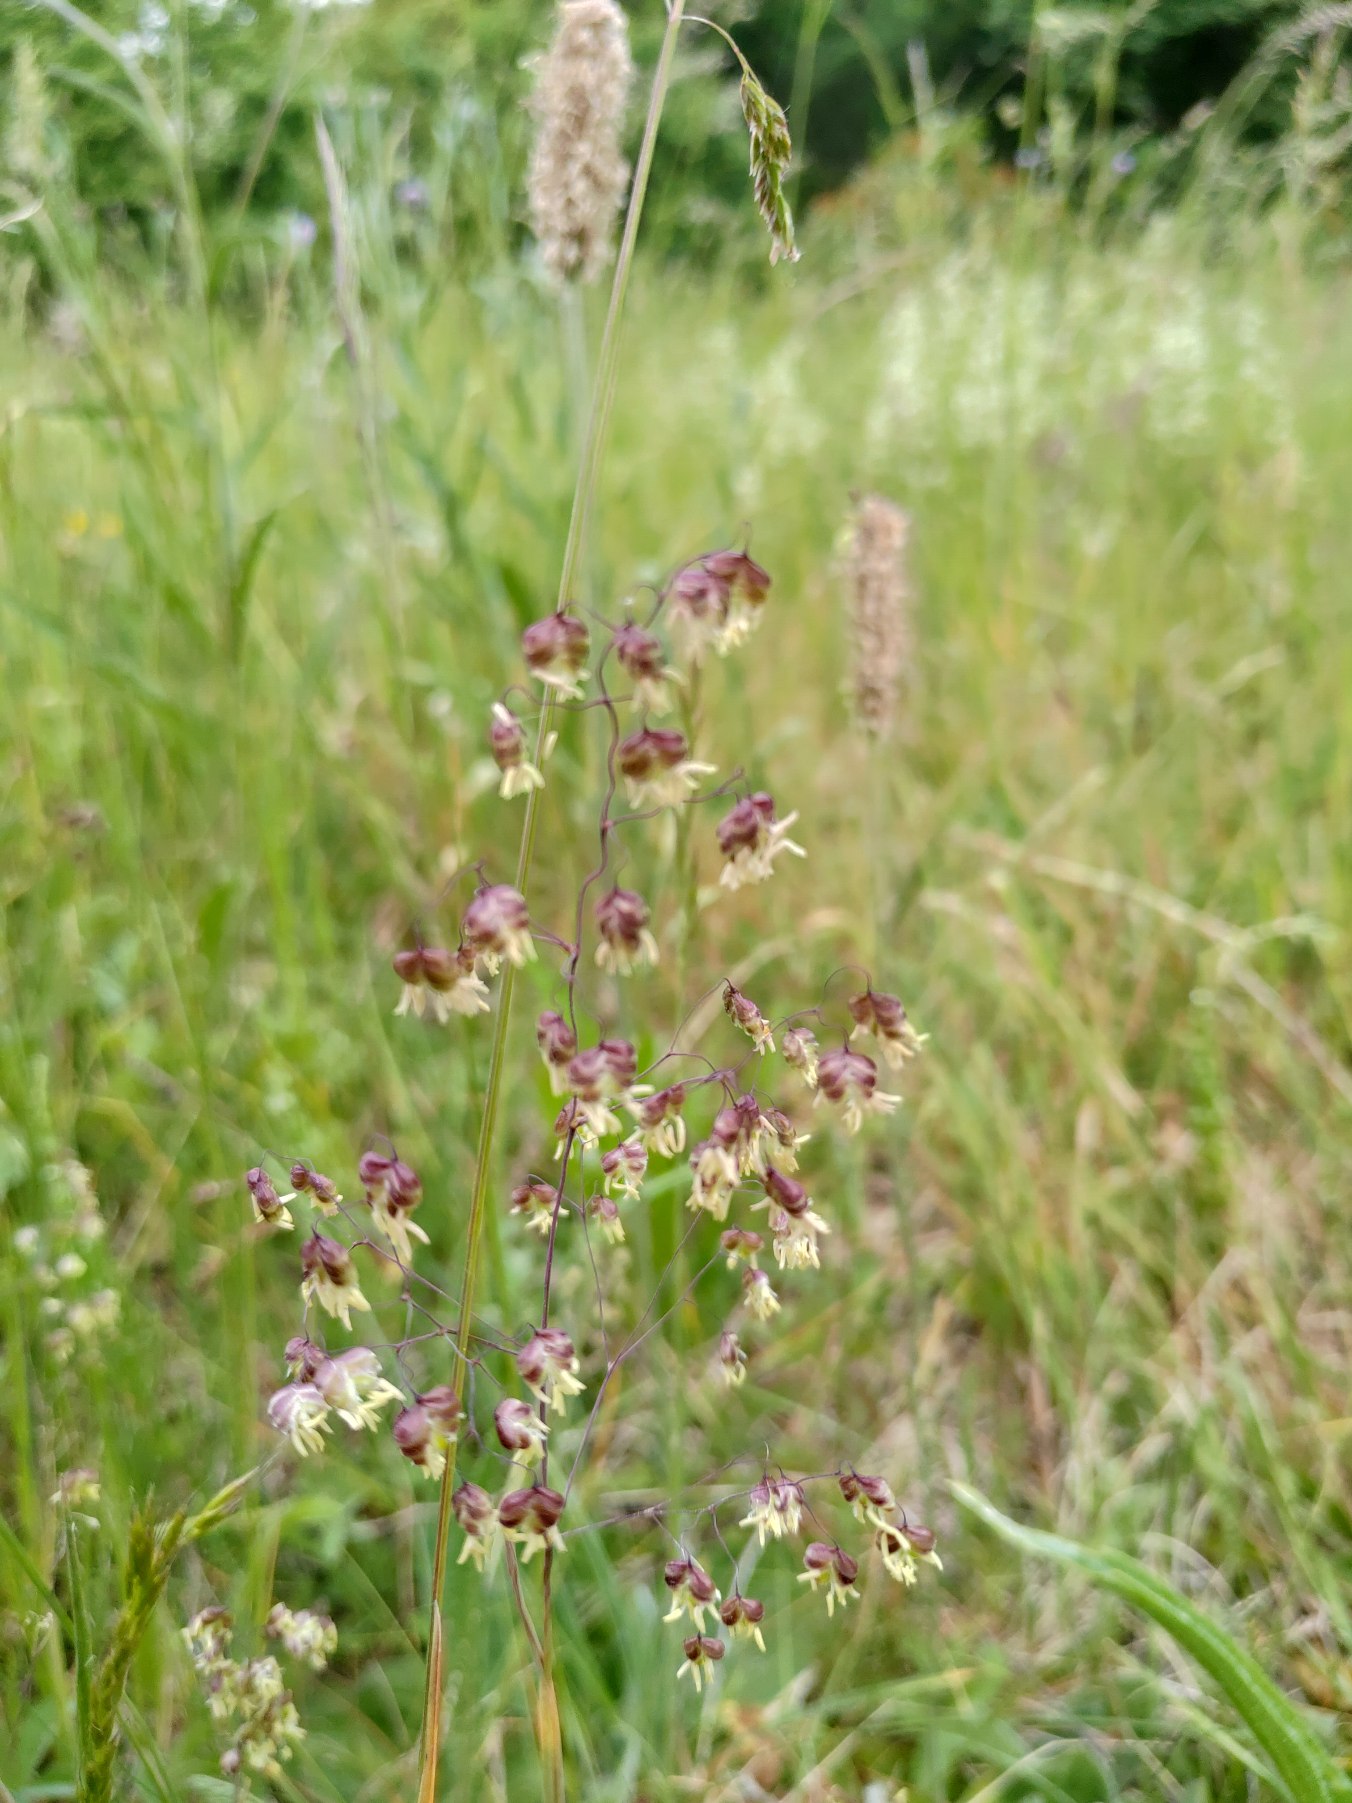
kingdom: Plantae
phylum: Tracheophyta
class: Liliopsida
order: Poales
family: Poaceae
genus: Briza
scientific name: Briza media
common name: Hjertegræs
